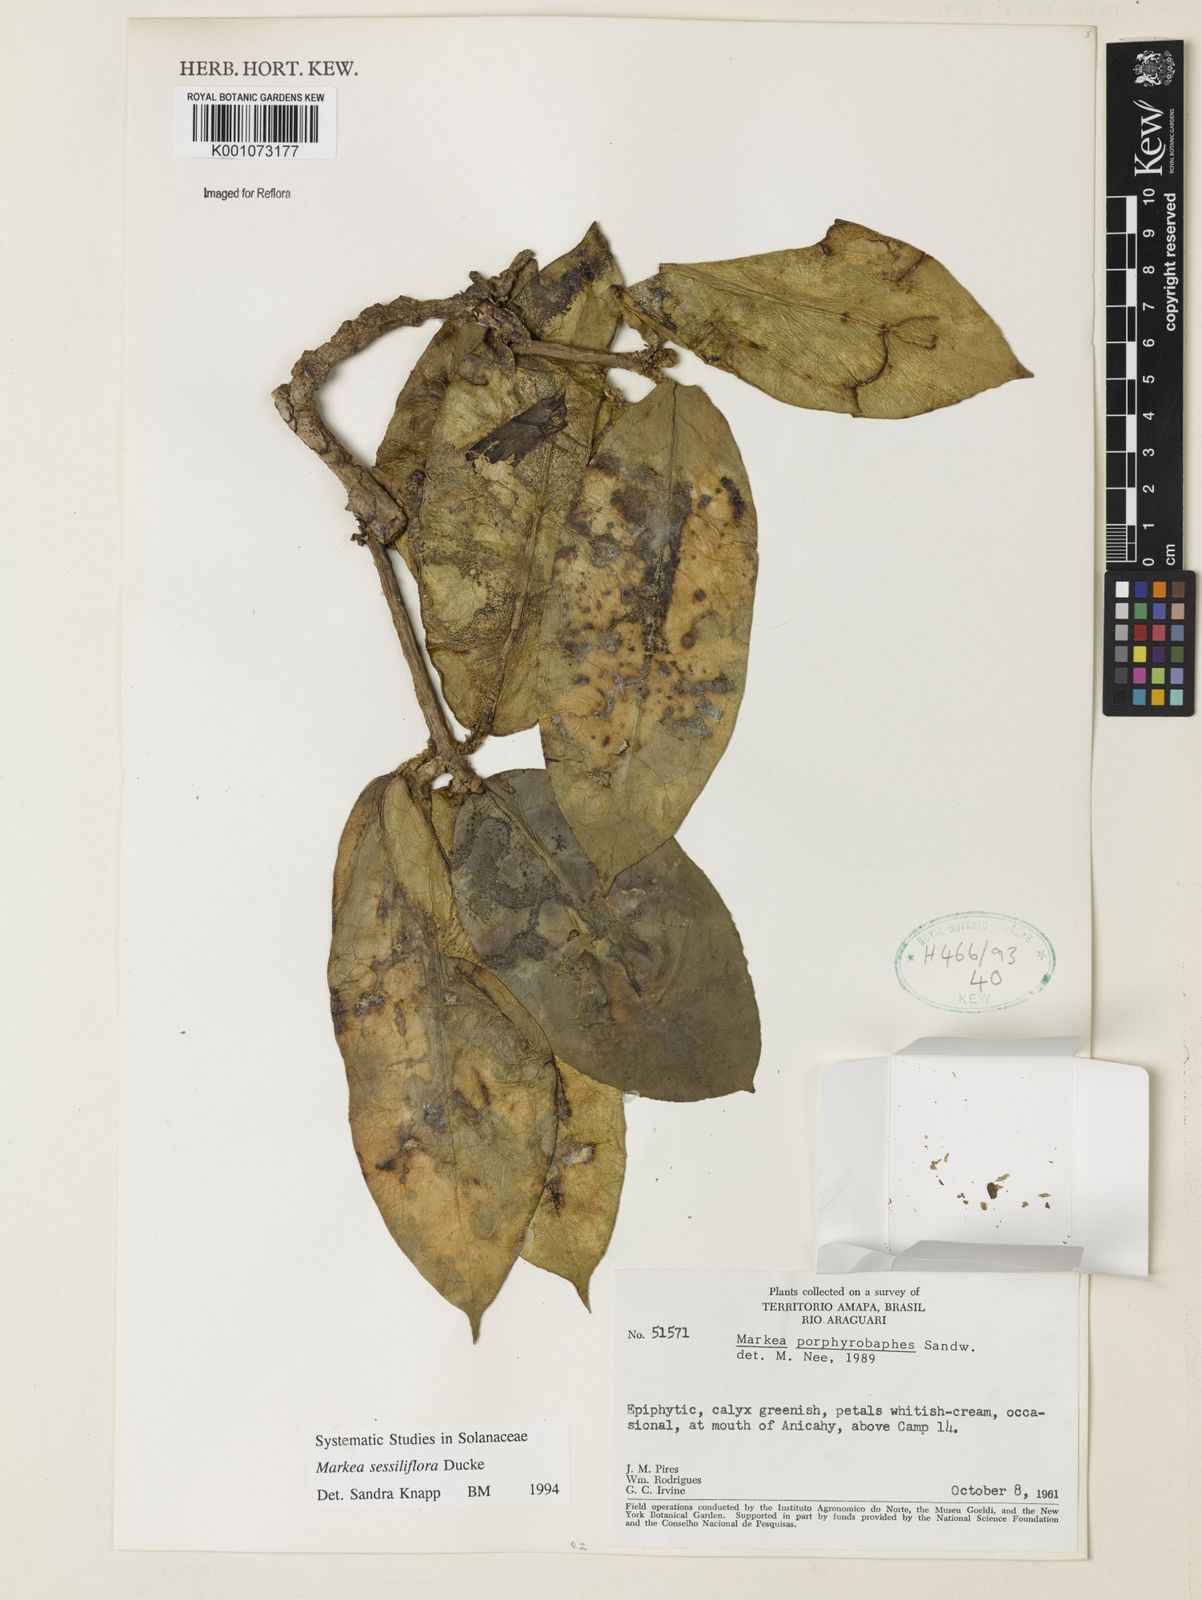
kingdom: Plantae
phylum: Tracheophyta
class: Magnoliopsida
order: Solanales
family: Solanaceae
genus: Markea
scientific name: Markea
